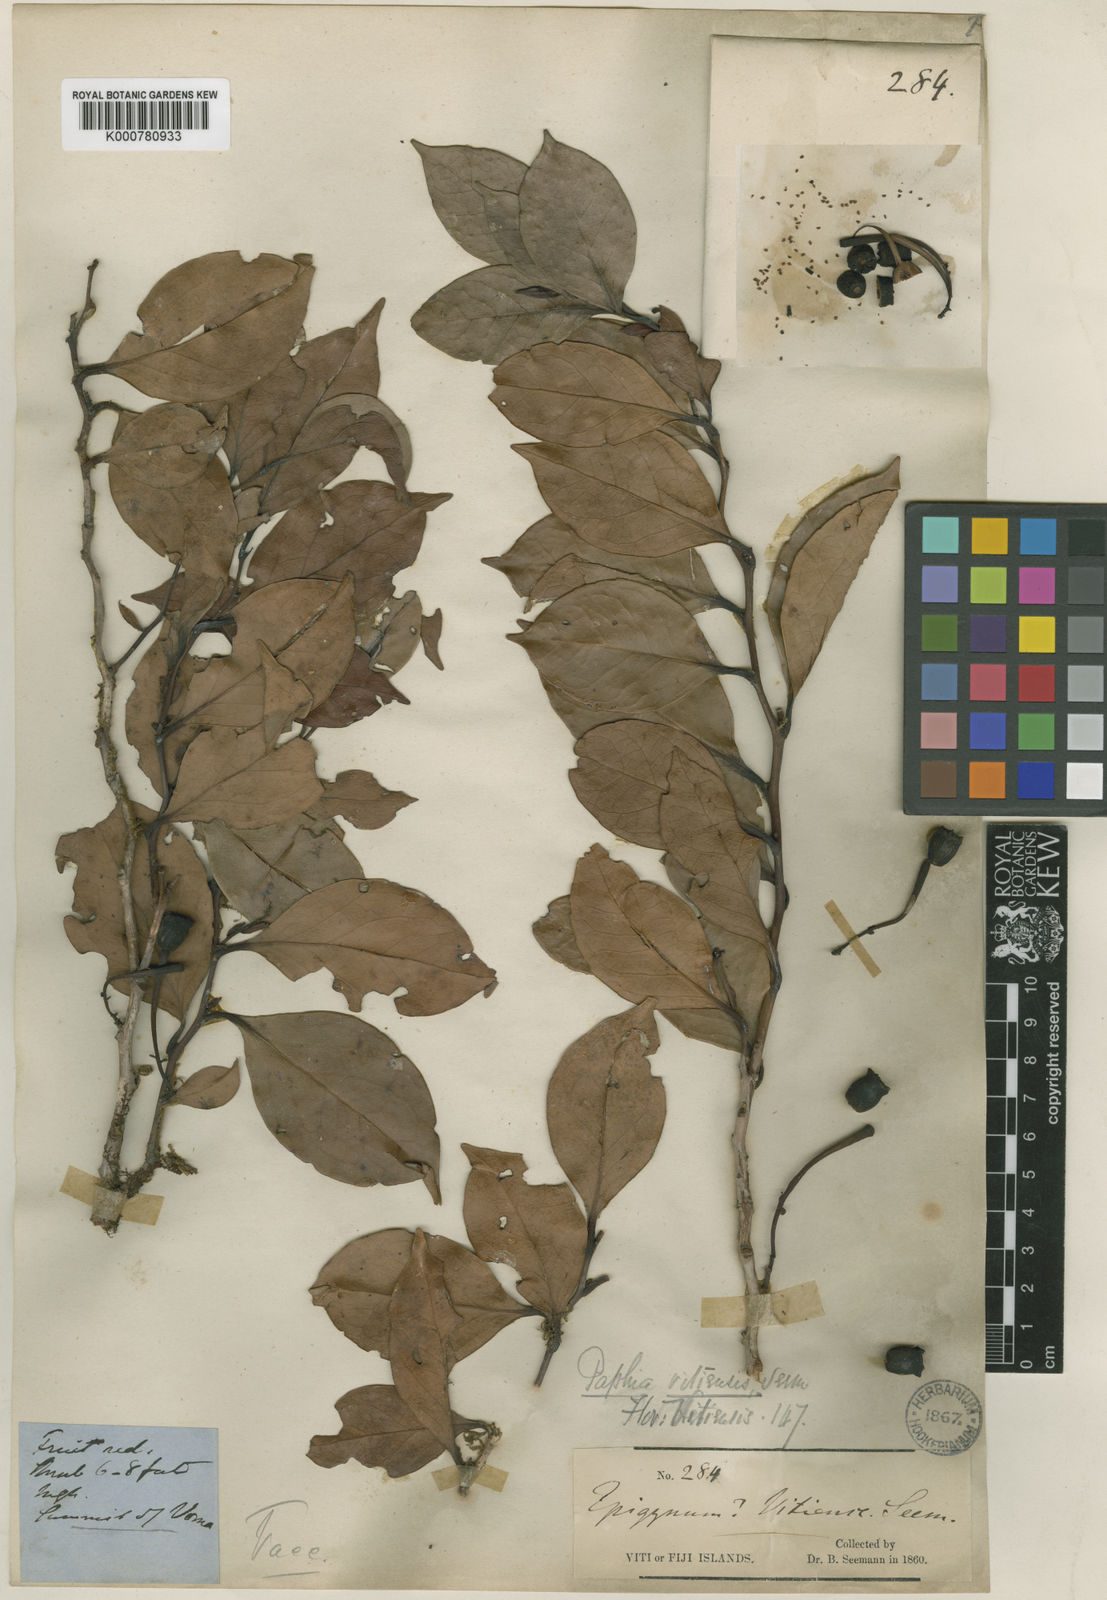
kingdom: Plantae
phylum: Tracheophyta
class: Magnoliopsida
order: Ericales
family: Ericaceae
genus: Paphia
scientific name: Paphia vitiensis
